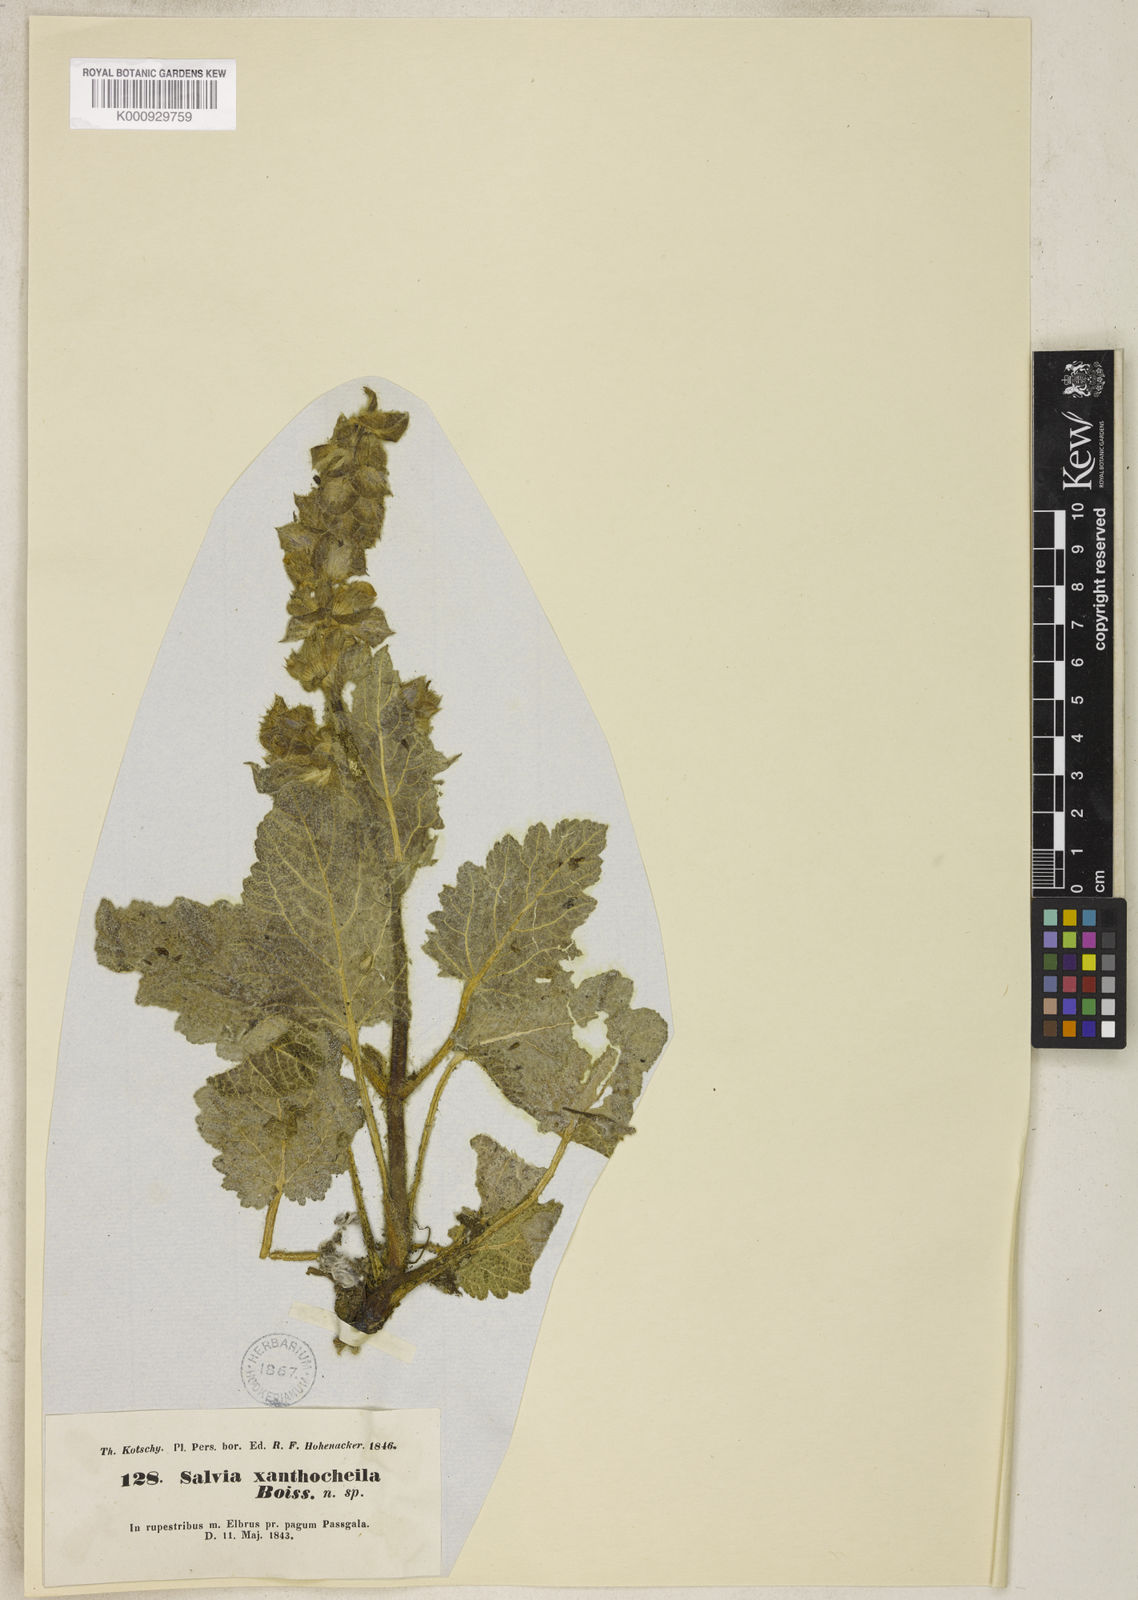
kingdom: Plantae
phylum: Tracheophyta
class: Magnoliopsida
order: Lamiales
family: Lamiaceae
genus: Salvia
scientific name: Salvia xanthocheila
